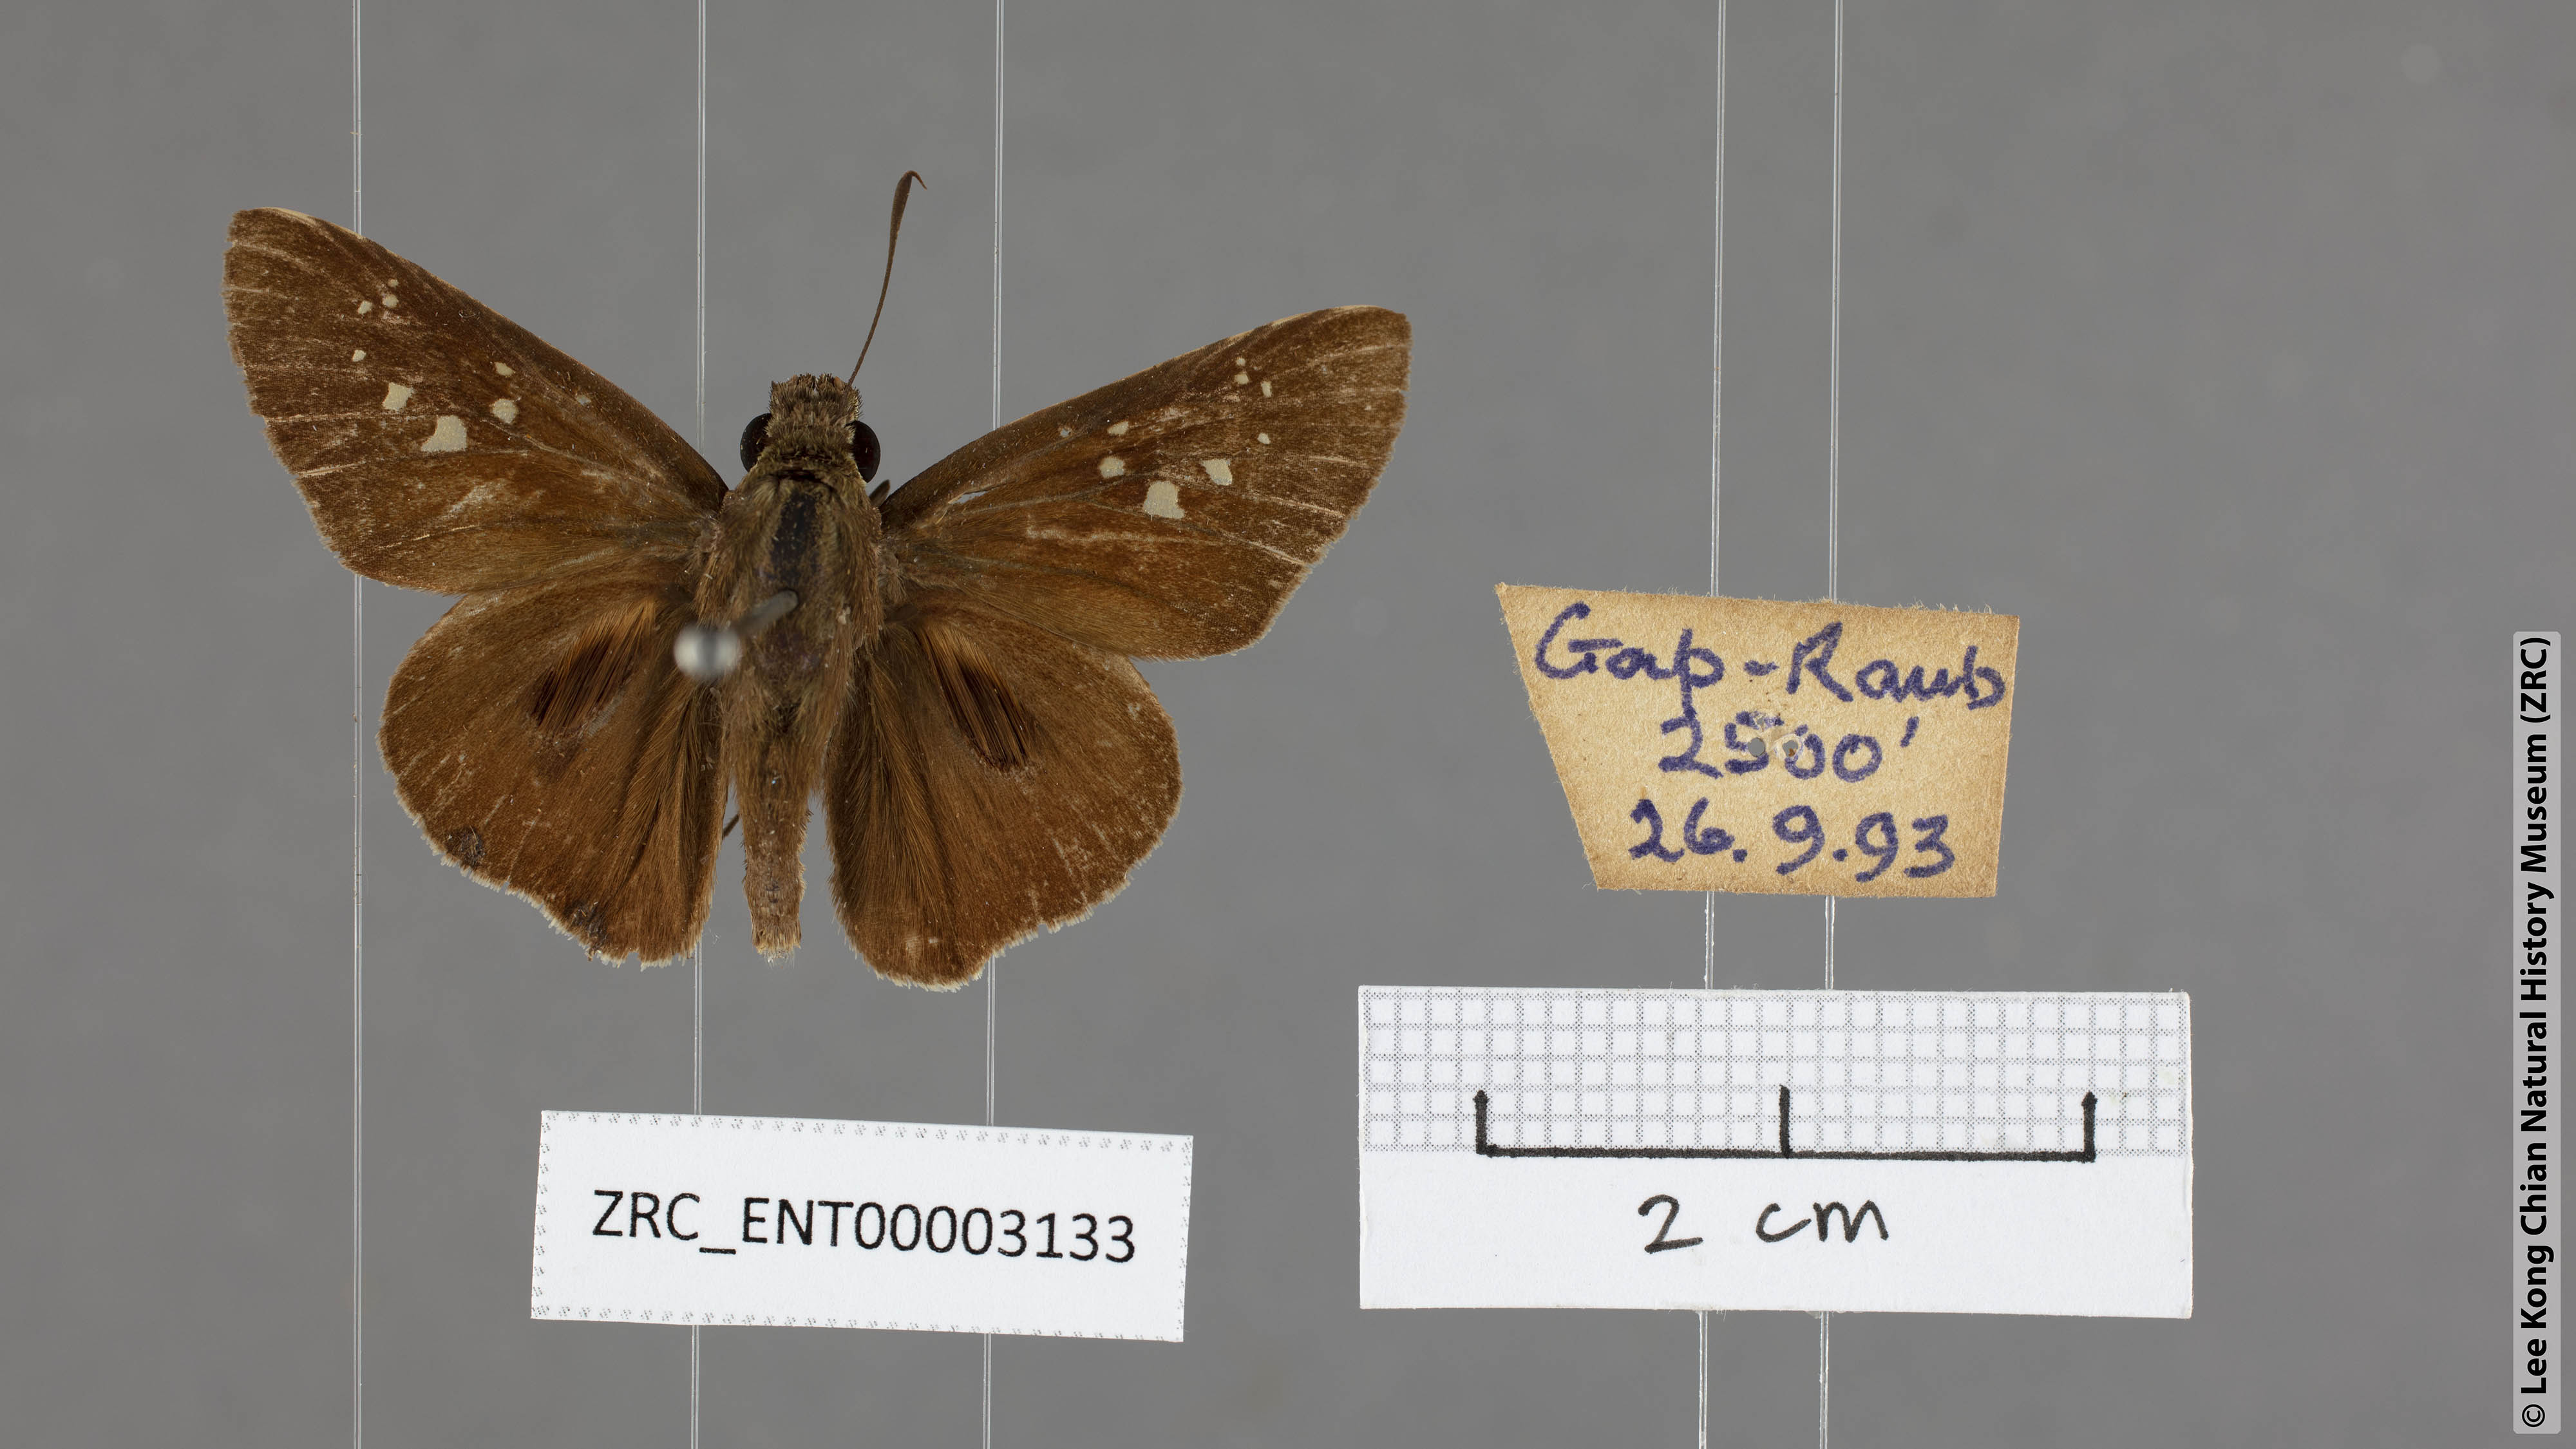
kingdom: Animalia
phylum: Arthropoda
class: Insecta
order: Lepidoptera
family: Hesperiidae
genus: Baoris
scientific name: Baoris farri
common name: Paintbrush swift
